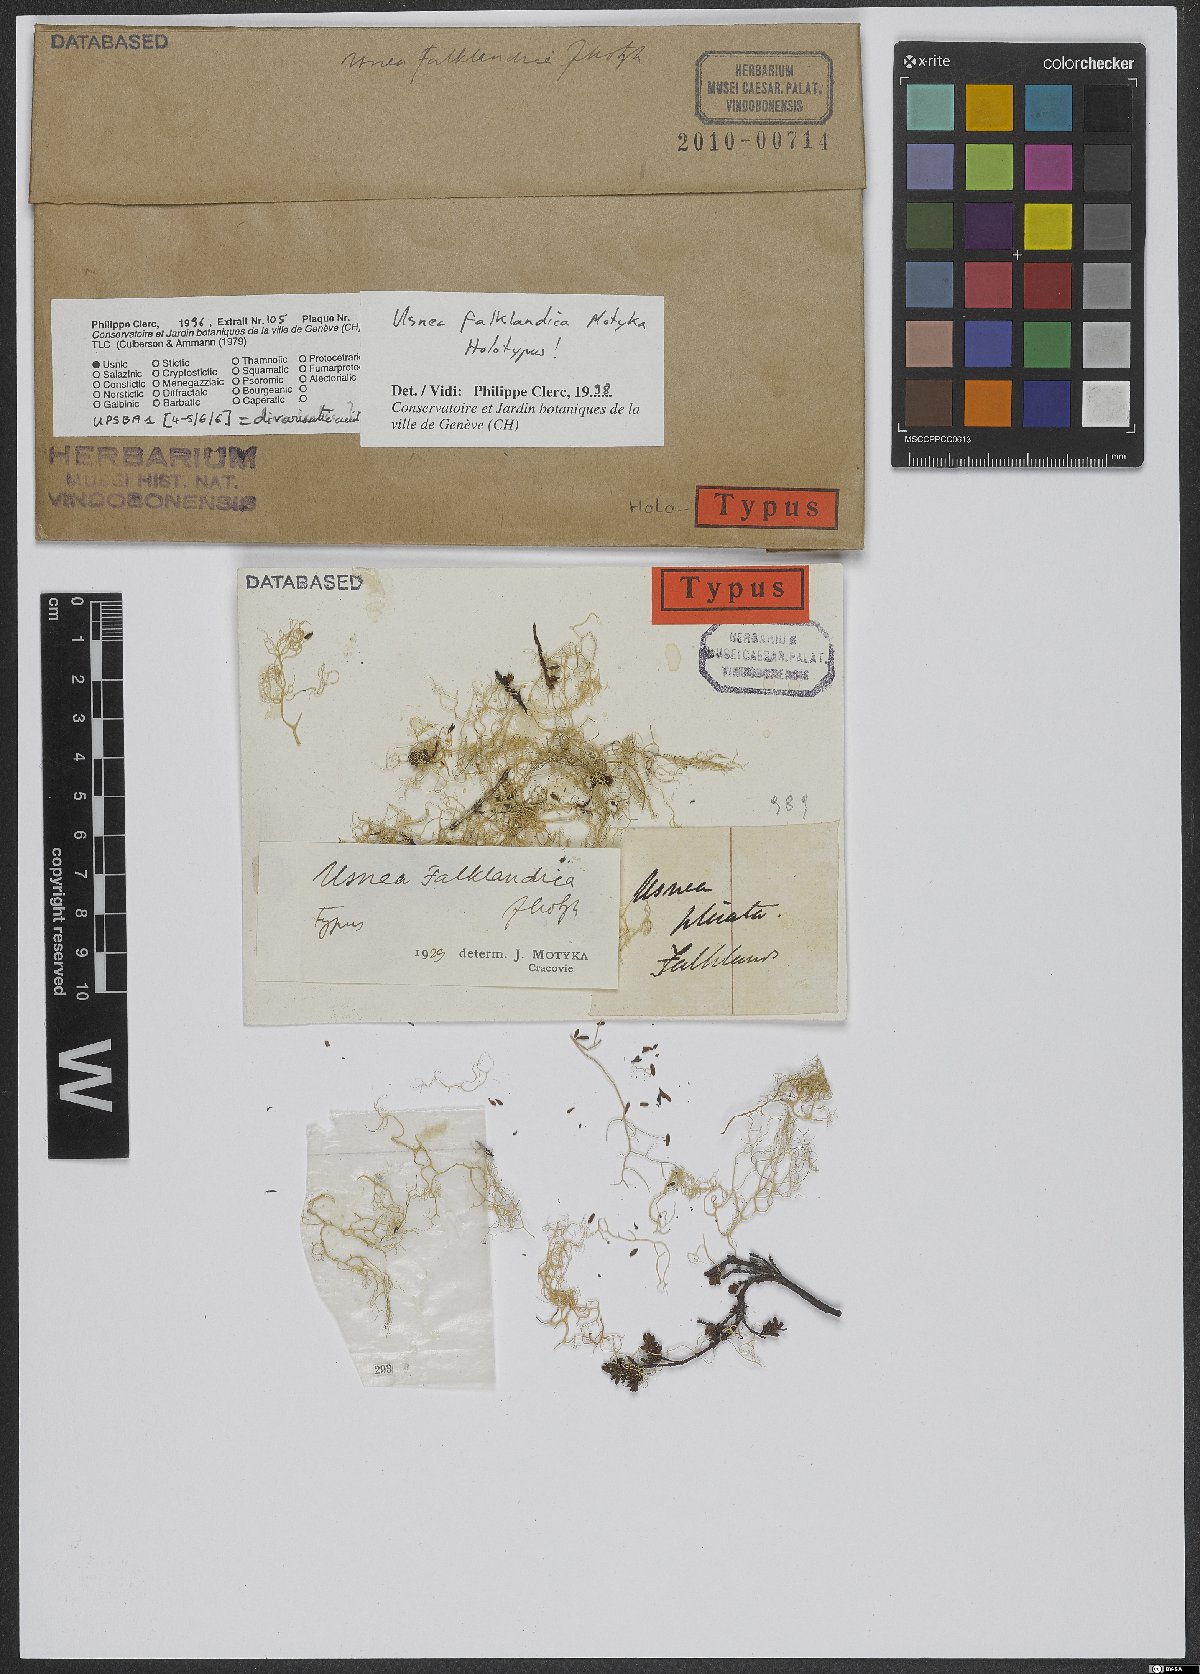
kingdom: Fungi
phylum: Ascomycota
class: Lecanoromycetes
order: Lecanorales
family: Parmeliaceae
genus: Usnea
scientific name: Usnea
